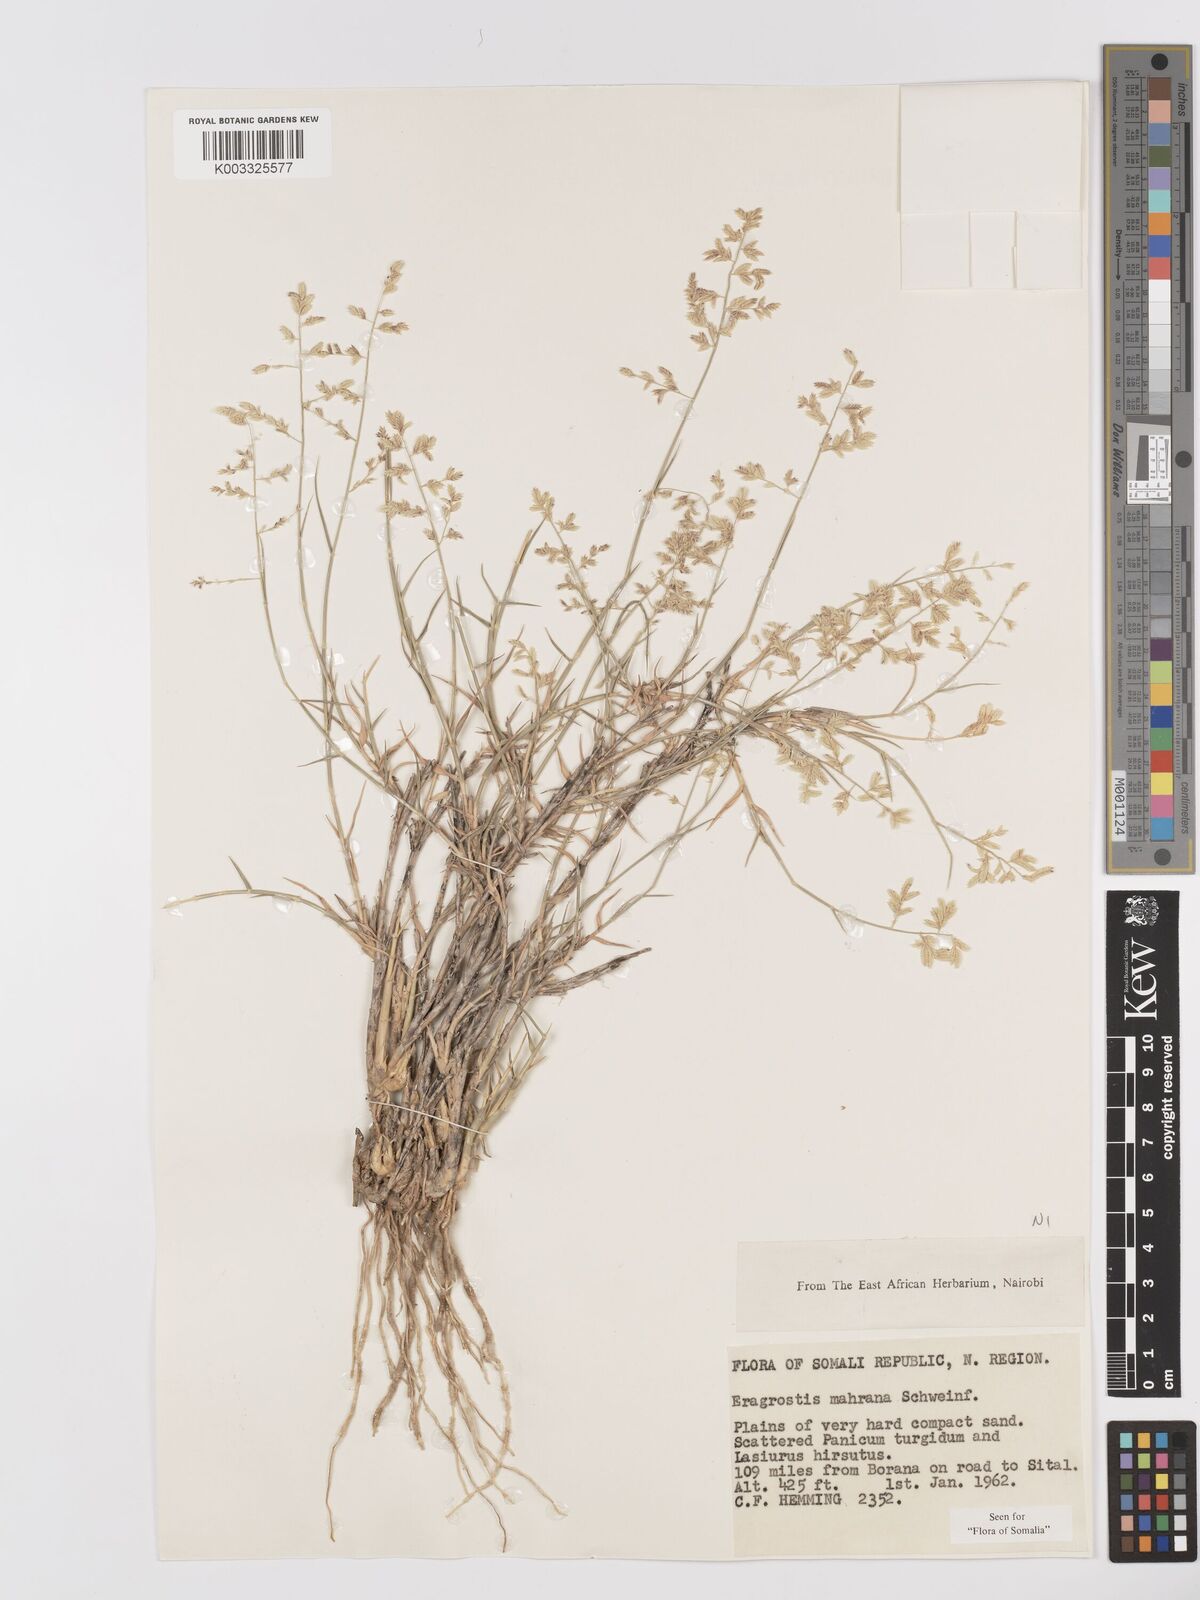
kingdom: Plantae
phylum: Tracheophyta
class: Liliopsida
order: Poales
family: Poaceae
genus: Eragrostis
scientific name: Eragrostis mahrana
